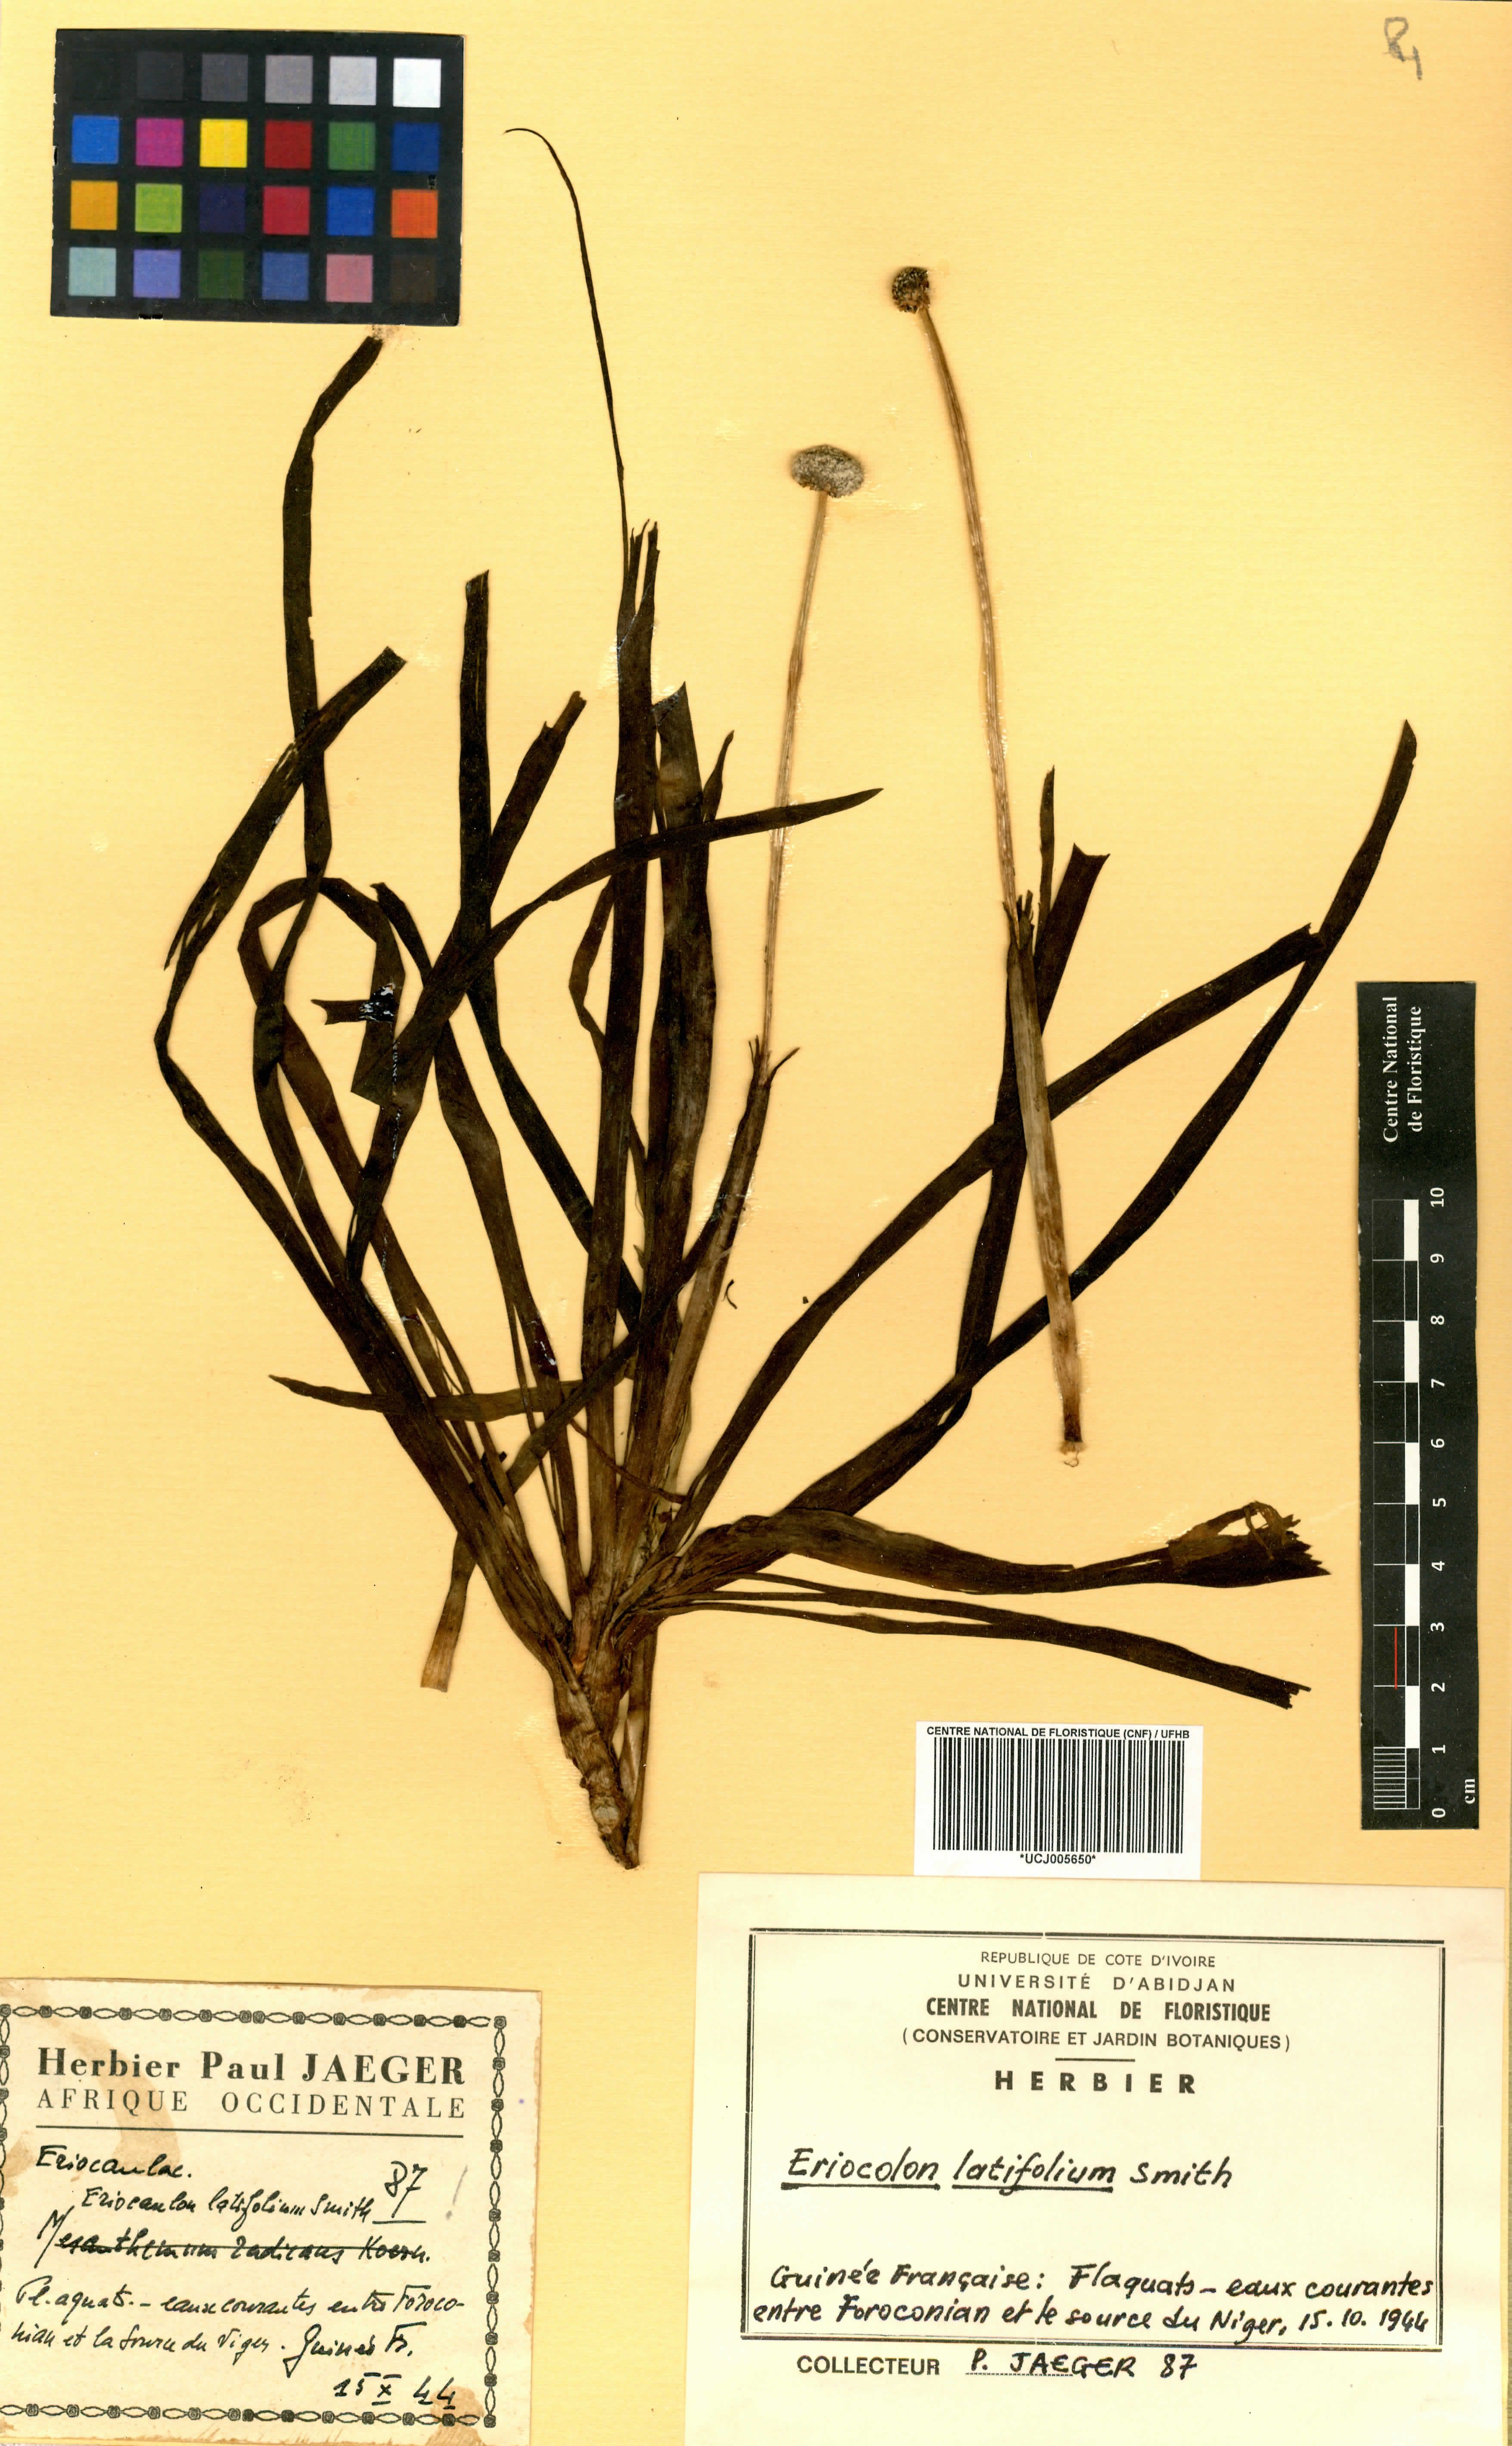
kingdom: Plantae
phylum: Tracheophyta
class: Liliopsida
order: Poales
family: Eriocaulaceae
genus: Eriocaulon
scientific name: Eriocaulon latifolium
